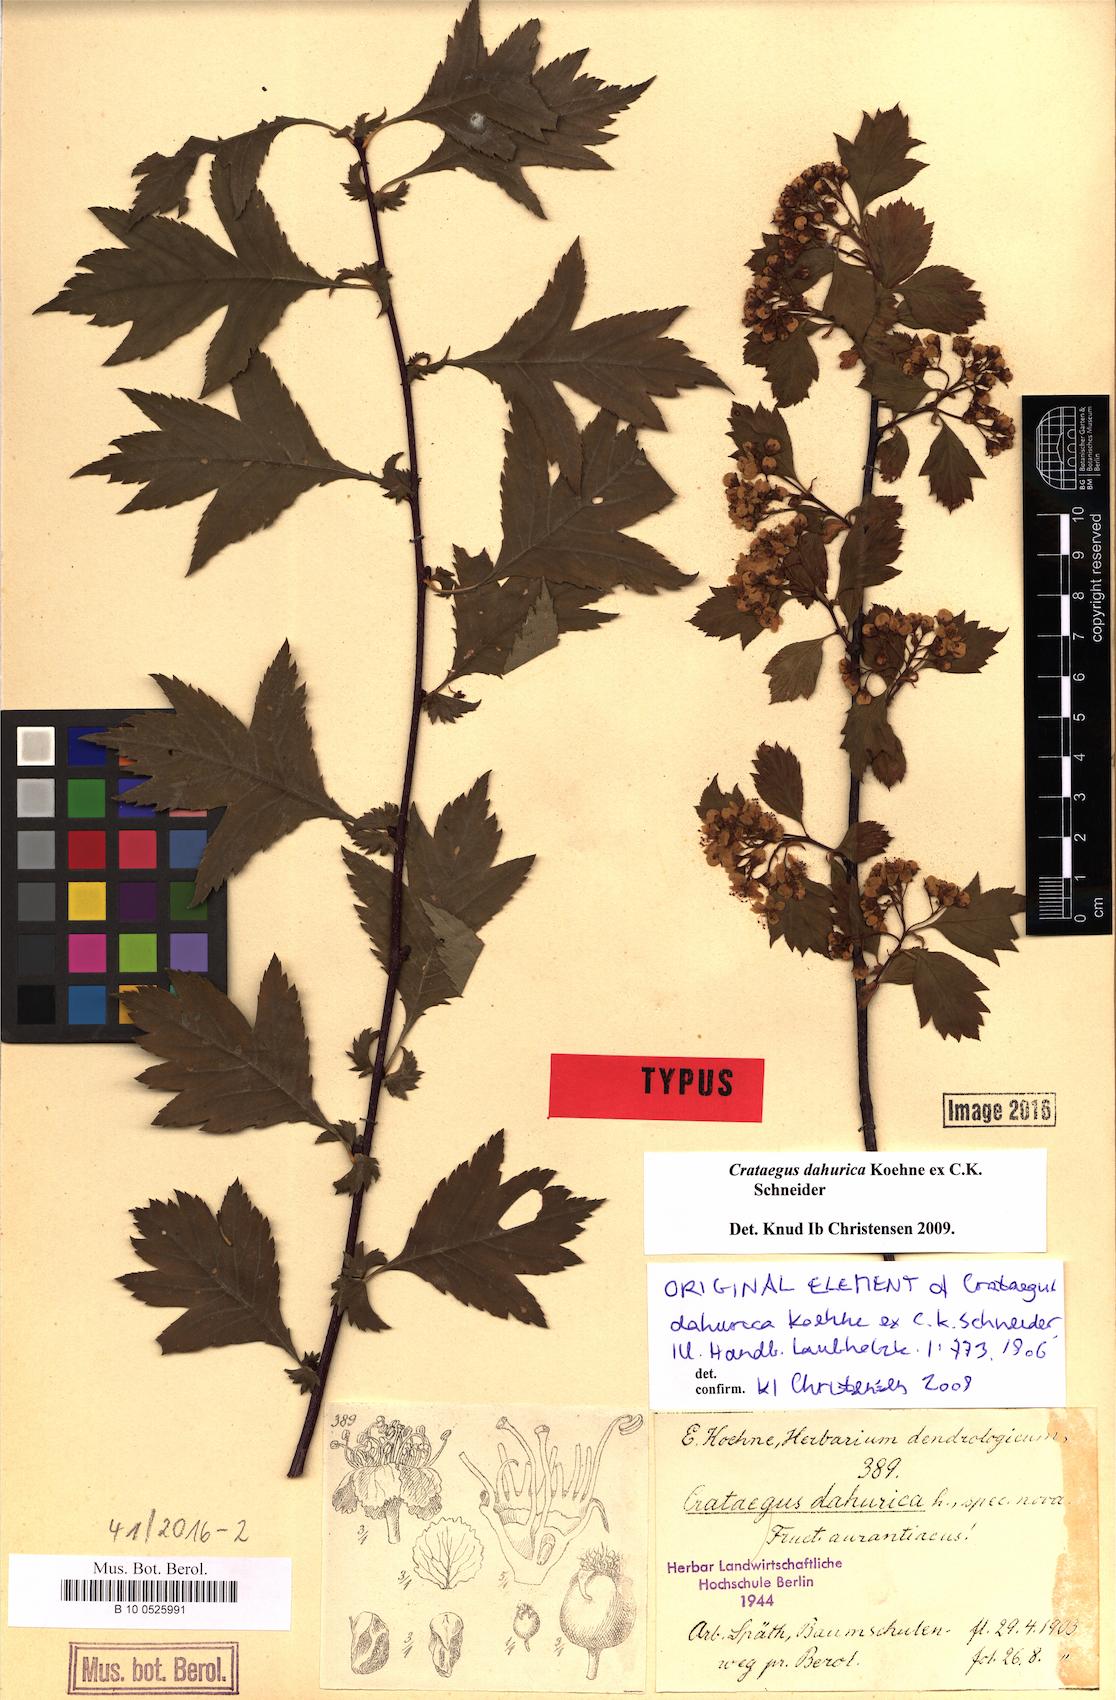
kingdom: Plantae
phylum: Tracheophyta
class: Magnoliopsida
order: Rosales
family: Rosaceae
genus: Crataegus
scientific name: Crataegus dahurica
